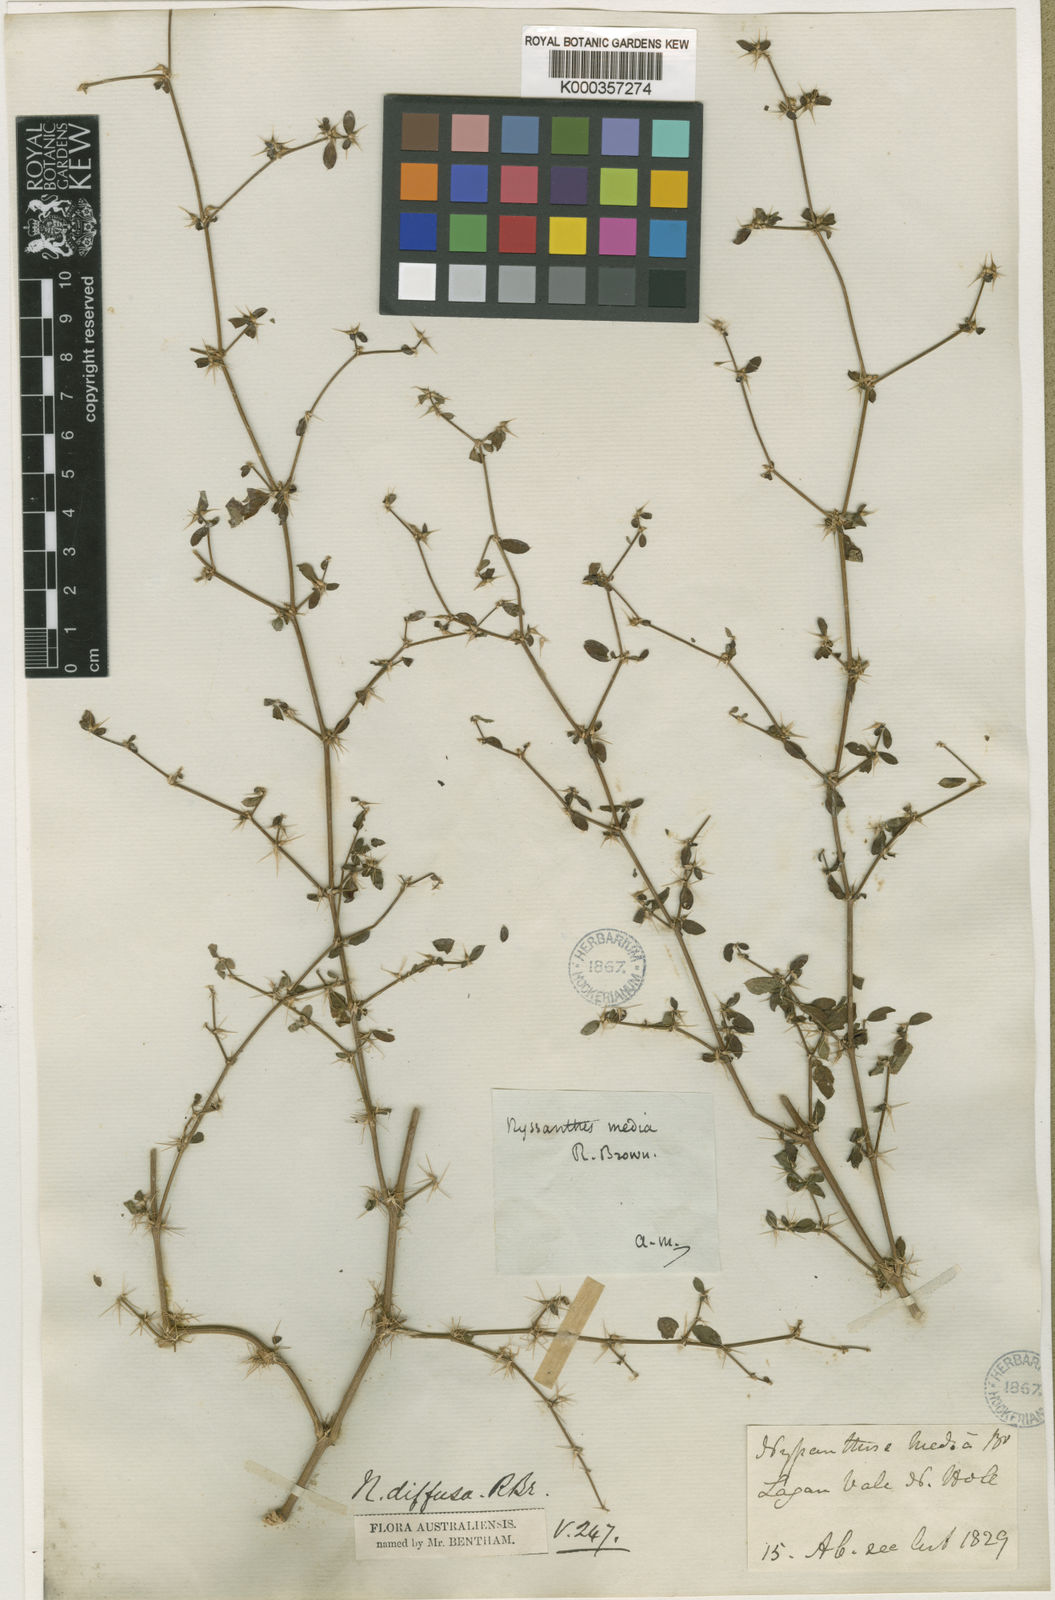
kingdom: Plantae
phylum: Tracheophyta
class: Magnoliopsida
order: Caryophyllales
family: Amaranthaceae
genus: Nyssanthes
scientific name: Nyssanthes diffusa
